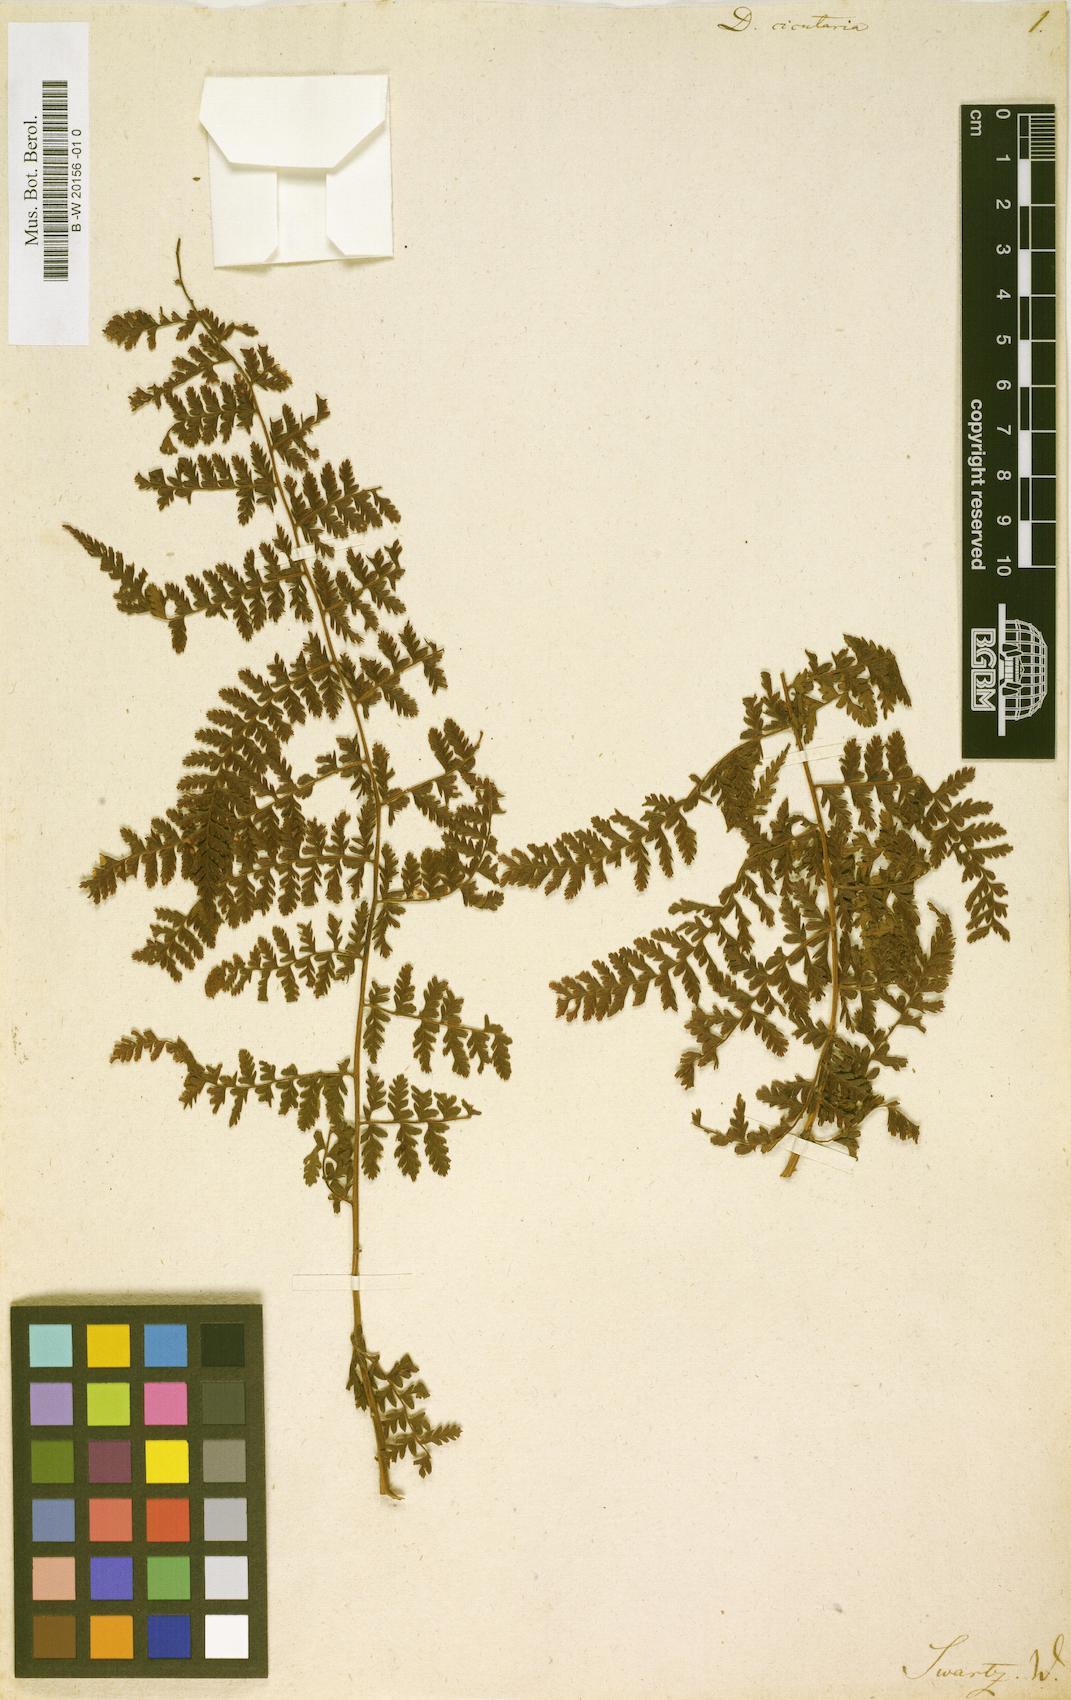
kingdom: Plantae
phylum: Tracheophyta
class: Polypodiopsida
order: Polypodiales
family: Dennstaedtiaceae
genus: Dennstaedtia
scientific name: Dennstaedtia cicutaria
